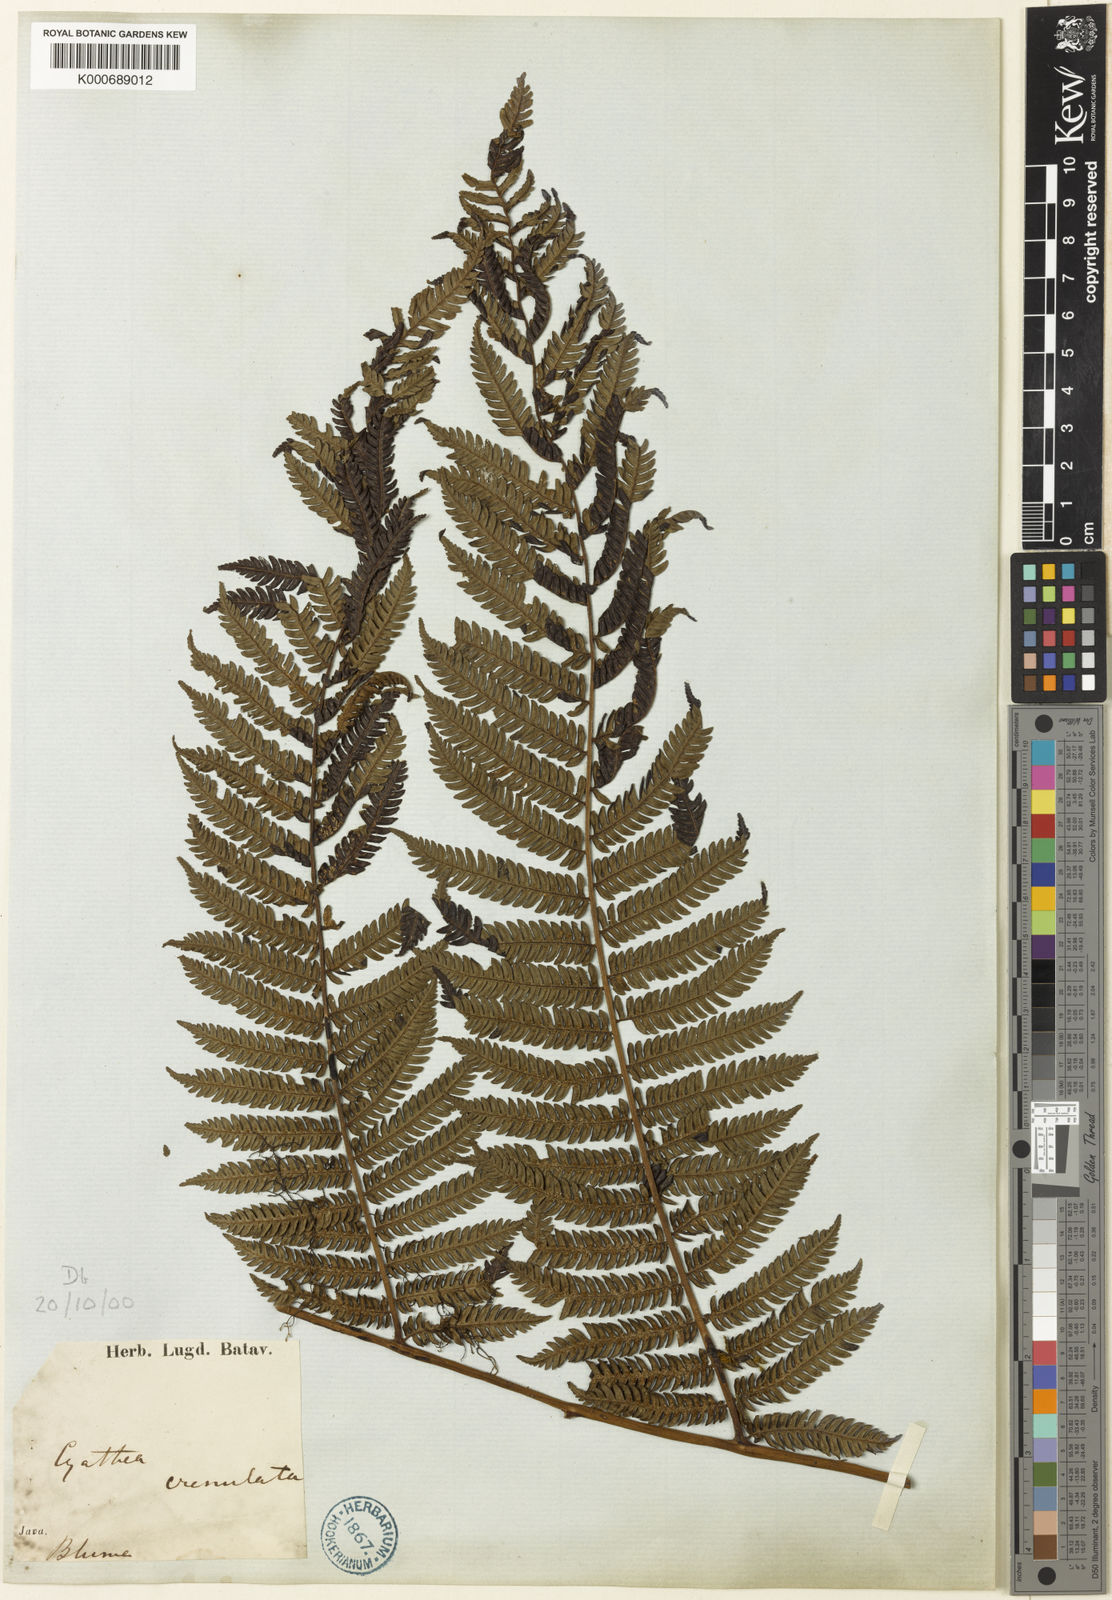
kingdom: Plantae
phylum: Tracheophyta
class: Polypodiopsida
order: Cyatheales
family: Cyatheaceae
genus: Alsophila
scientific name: Alsophila polycarpa
